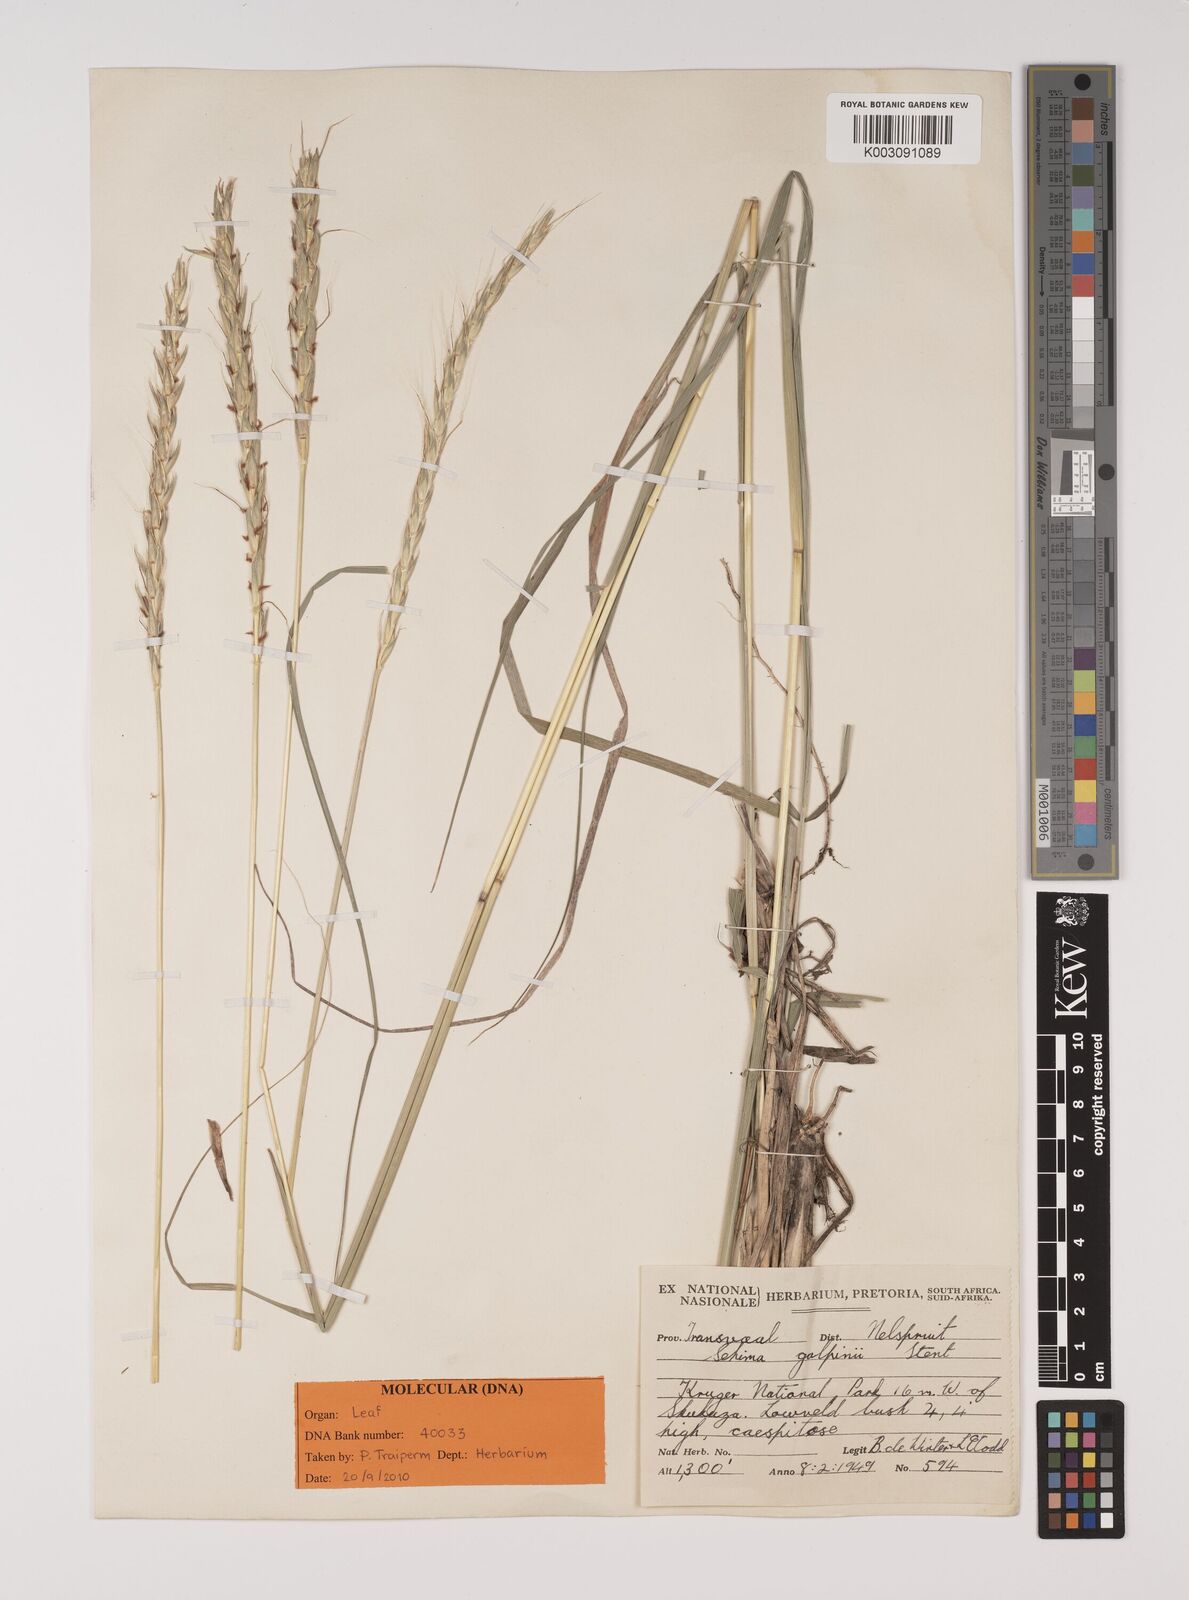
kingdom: Plantae
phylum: Tracheophyta
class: Liliopsida
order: Poales
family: Poaceae
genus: Sehima
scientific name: Sehima ischaemoides
